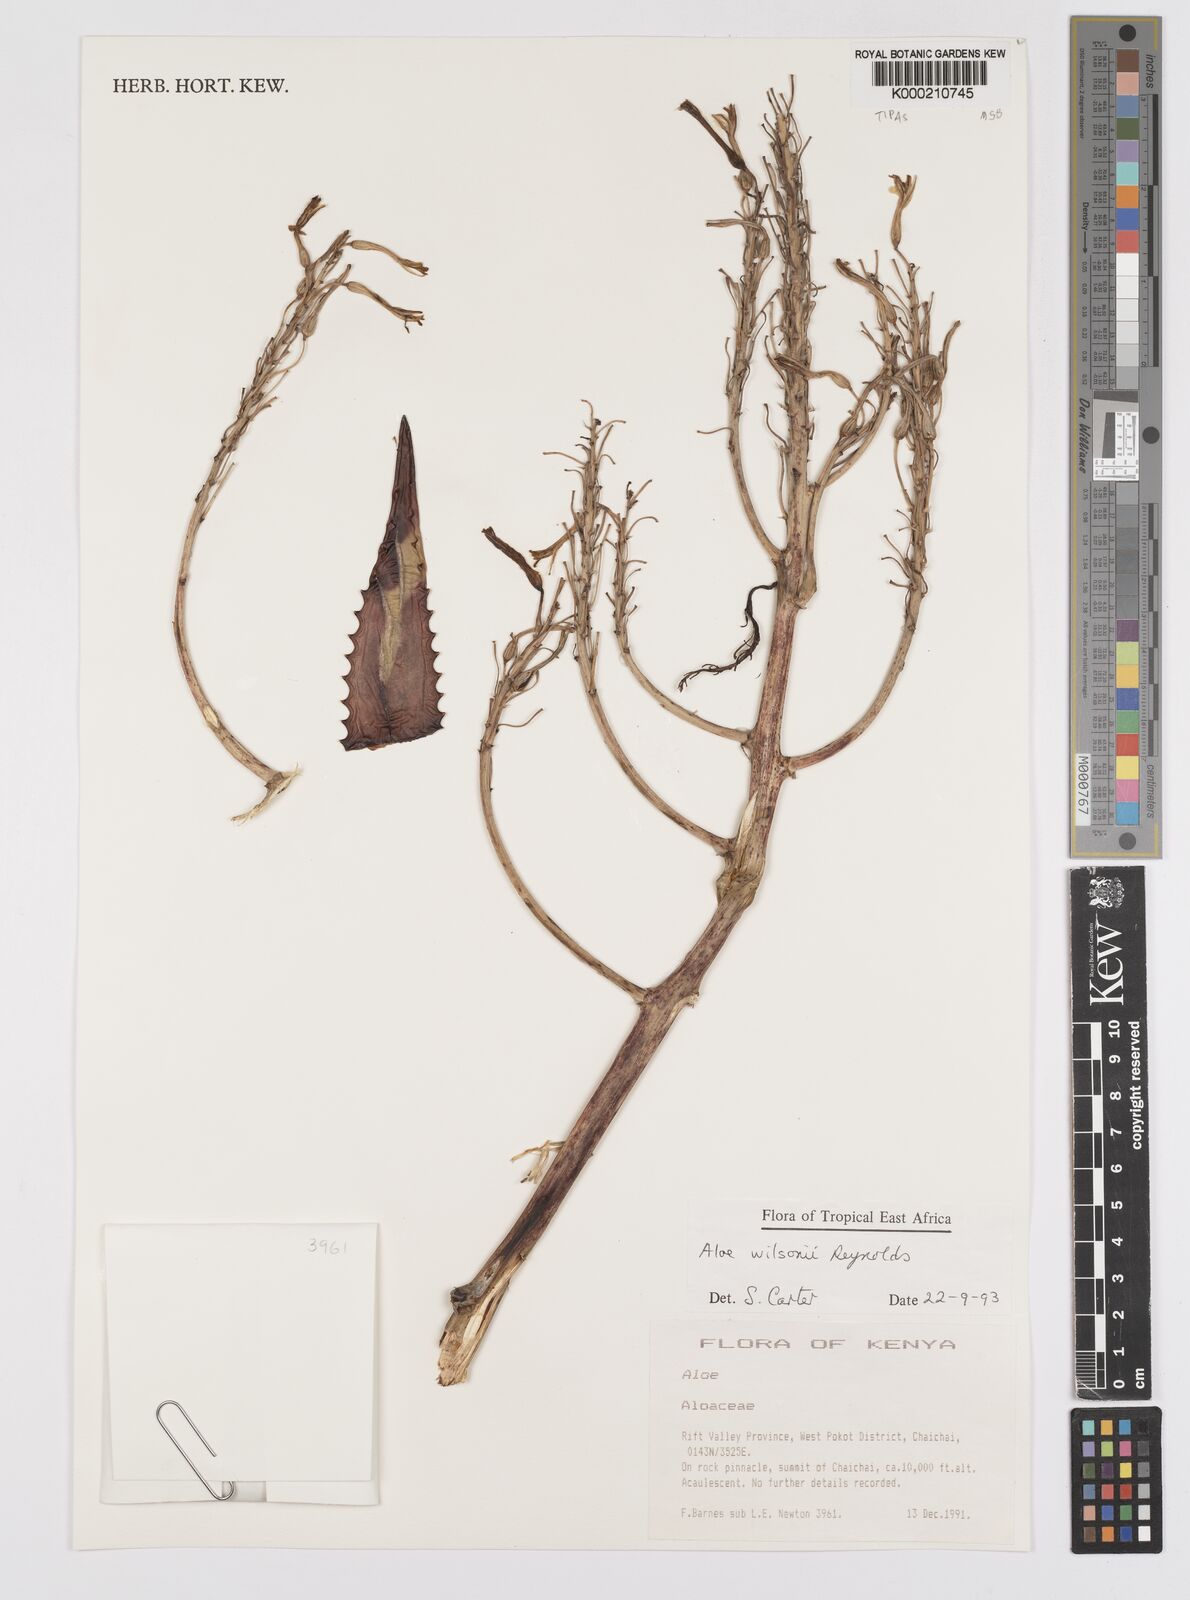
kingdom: Plantae
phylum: Tracheophyta
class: Liliopsida
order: Asparagales
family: Asphodelaceae
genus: Aloe
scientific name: Aloe wilsonii
